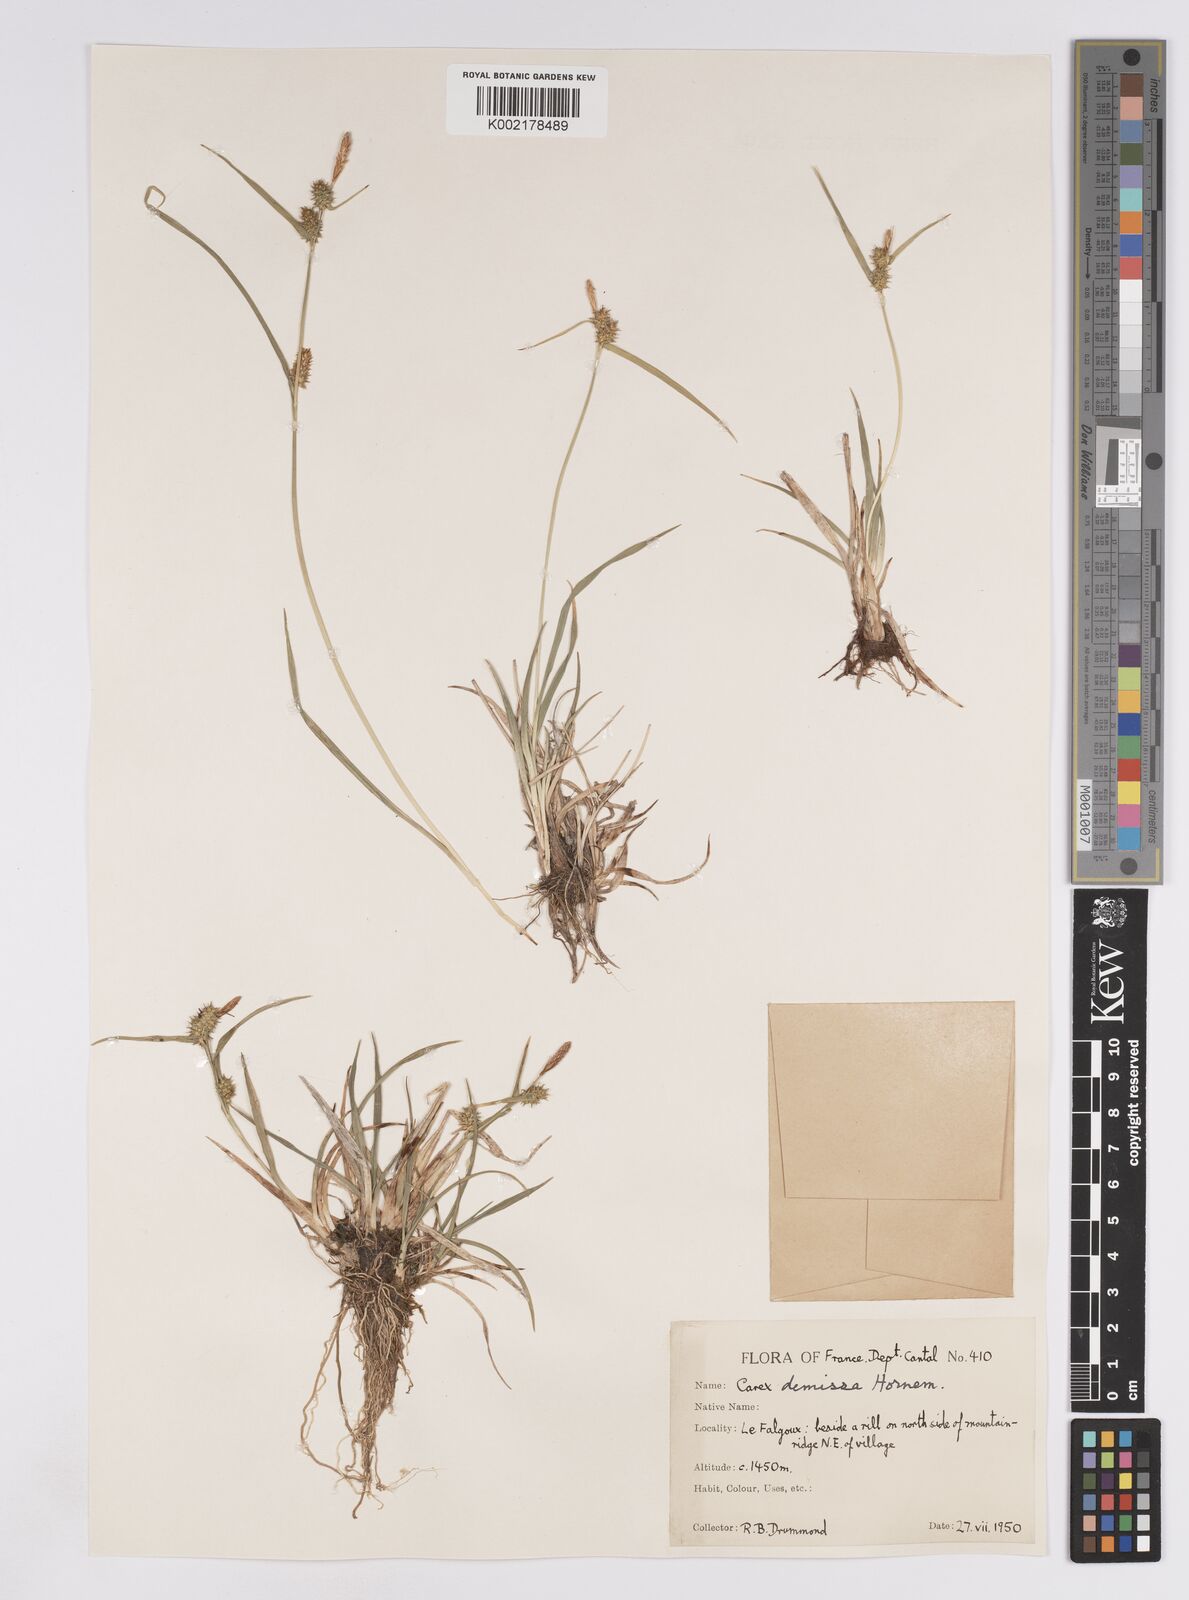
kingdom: Plantae
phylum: Tracheophyta
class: Liliopsida
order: Poales
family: Cyperaceae
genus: Carex
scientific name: Carex demissa
